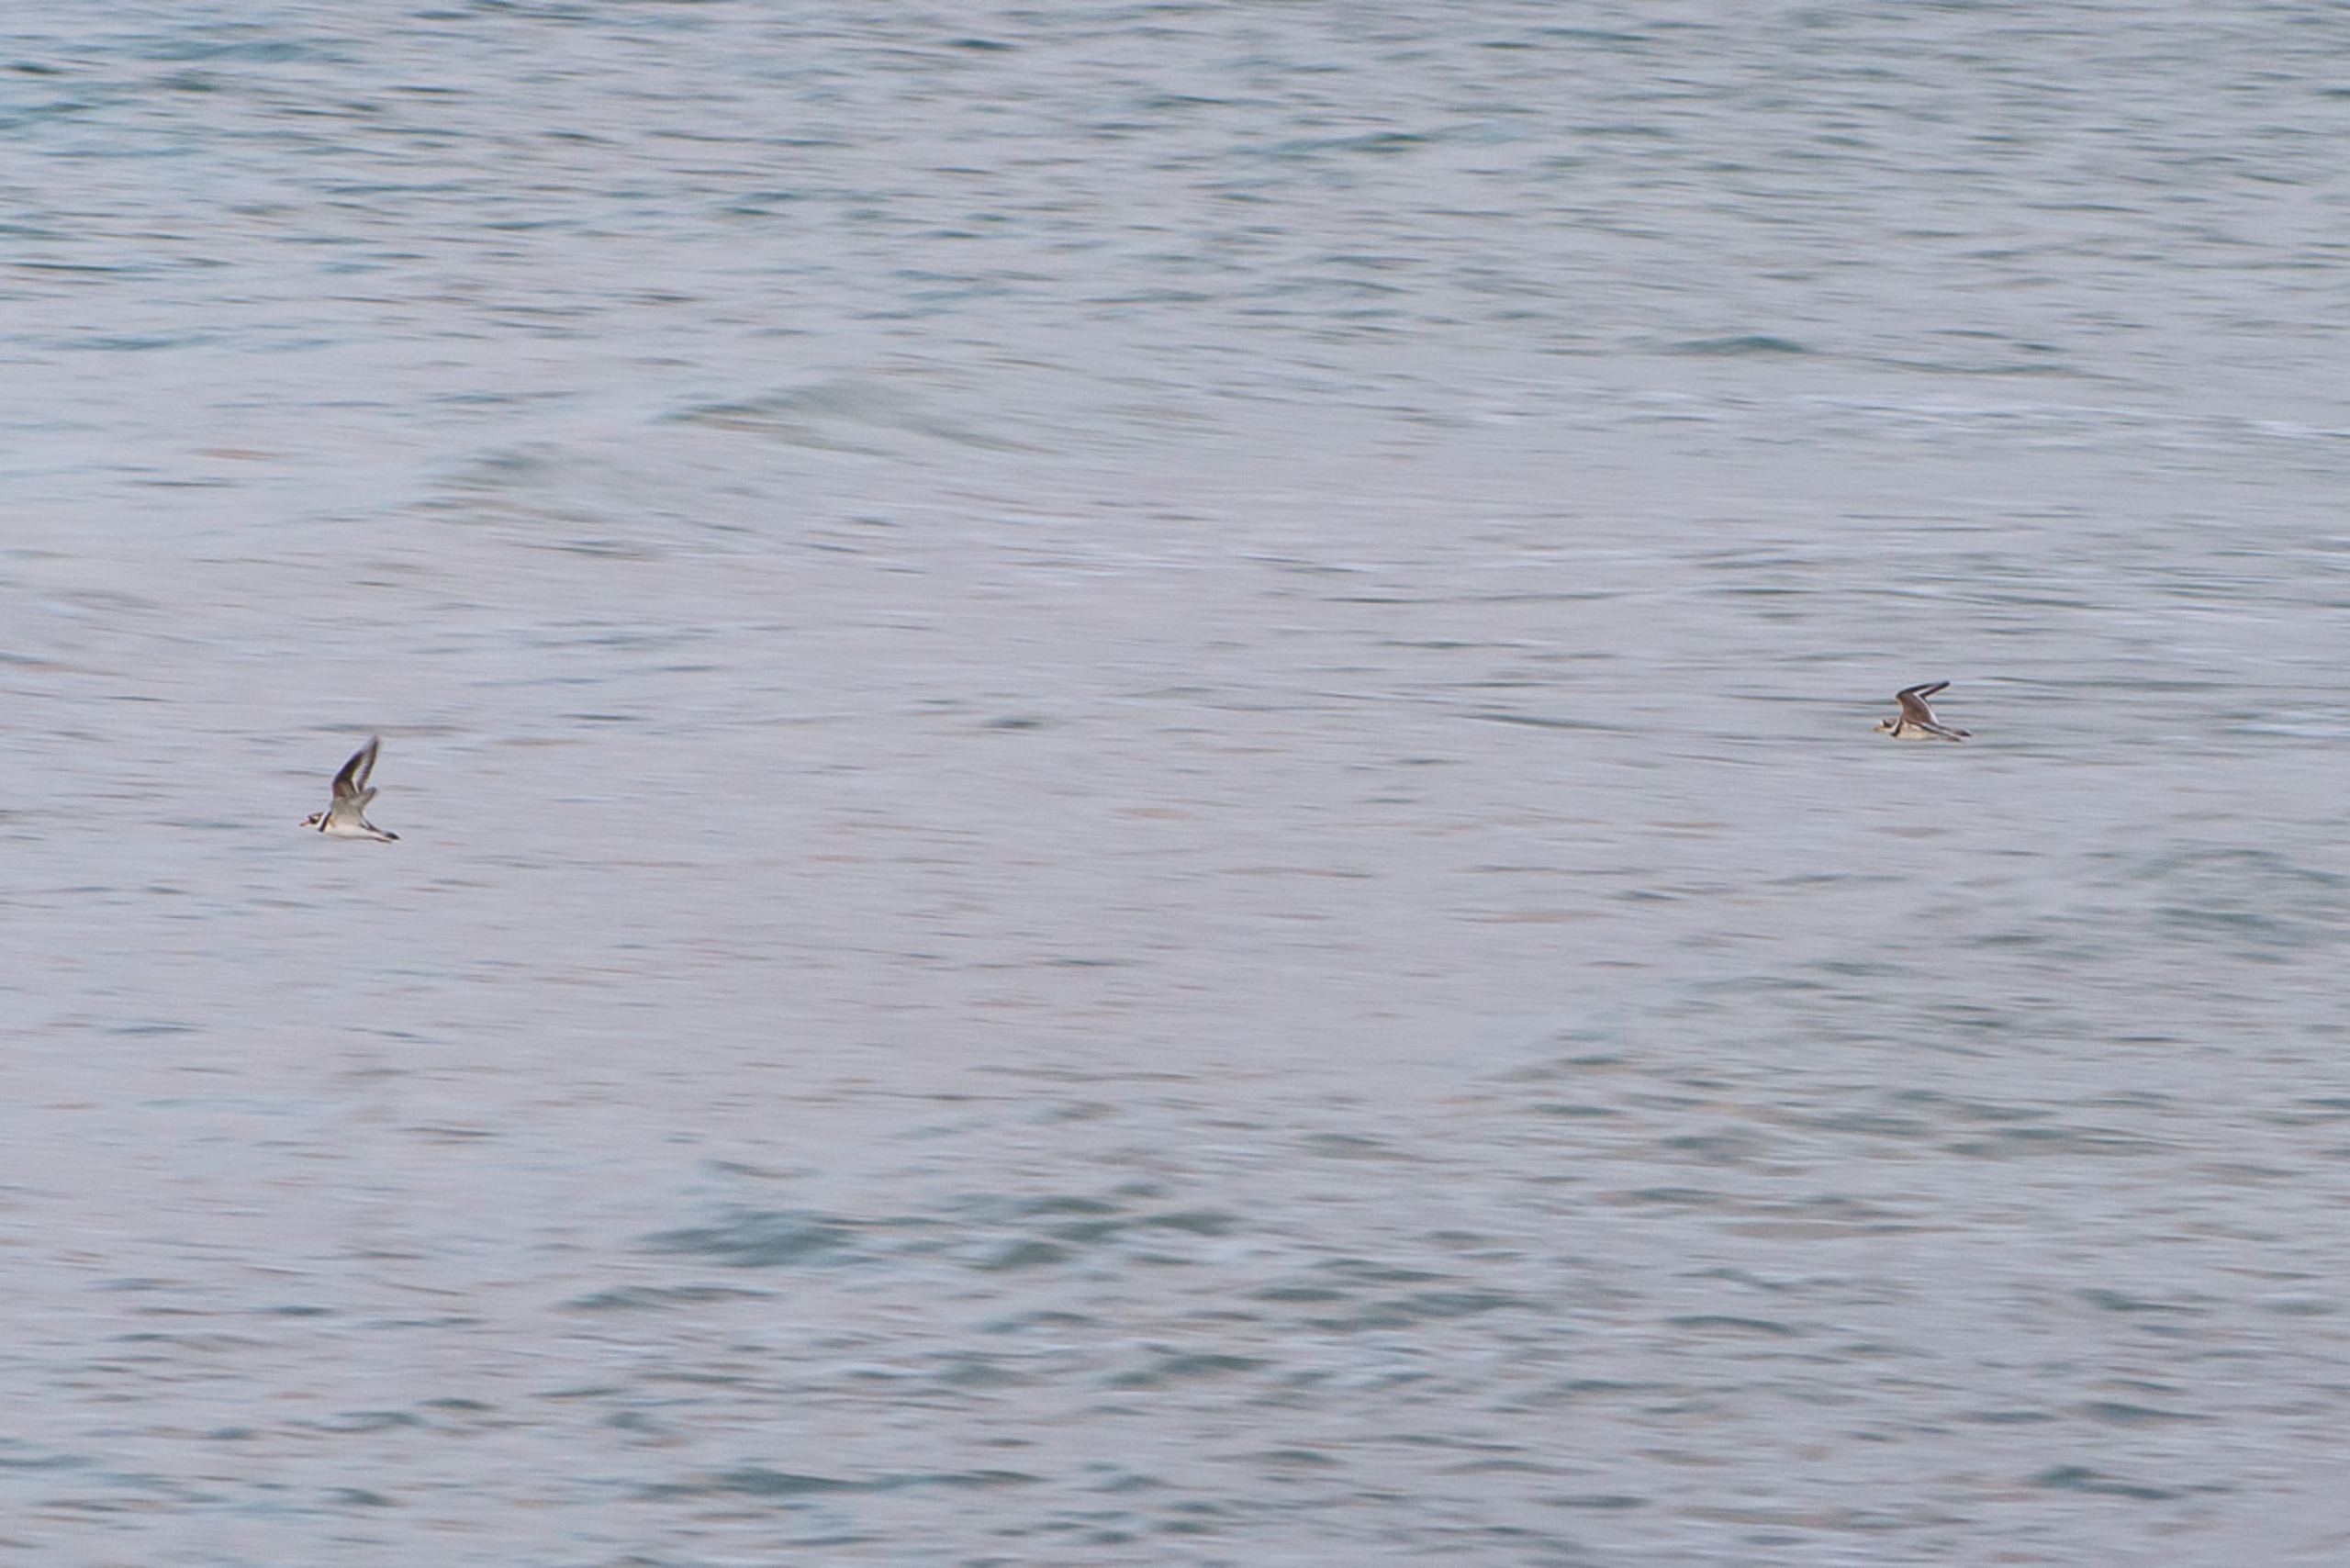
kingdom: Animalia
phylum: Chordata
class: Aves
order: Charadriiformes
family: Charadriidae
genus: Charadrius
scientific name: Charadrius hiaticula
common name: Stor præstekrave
